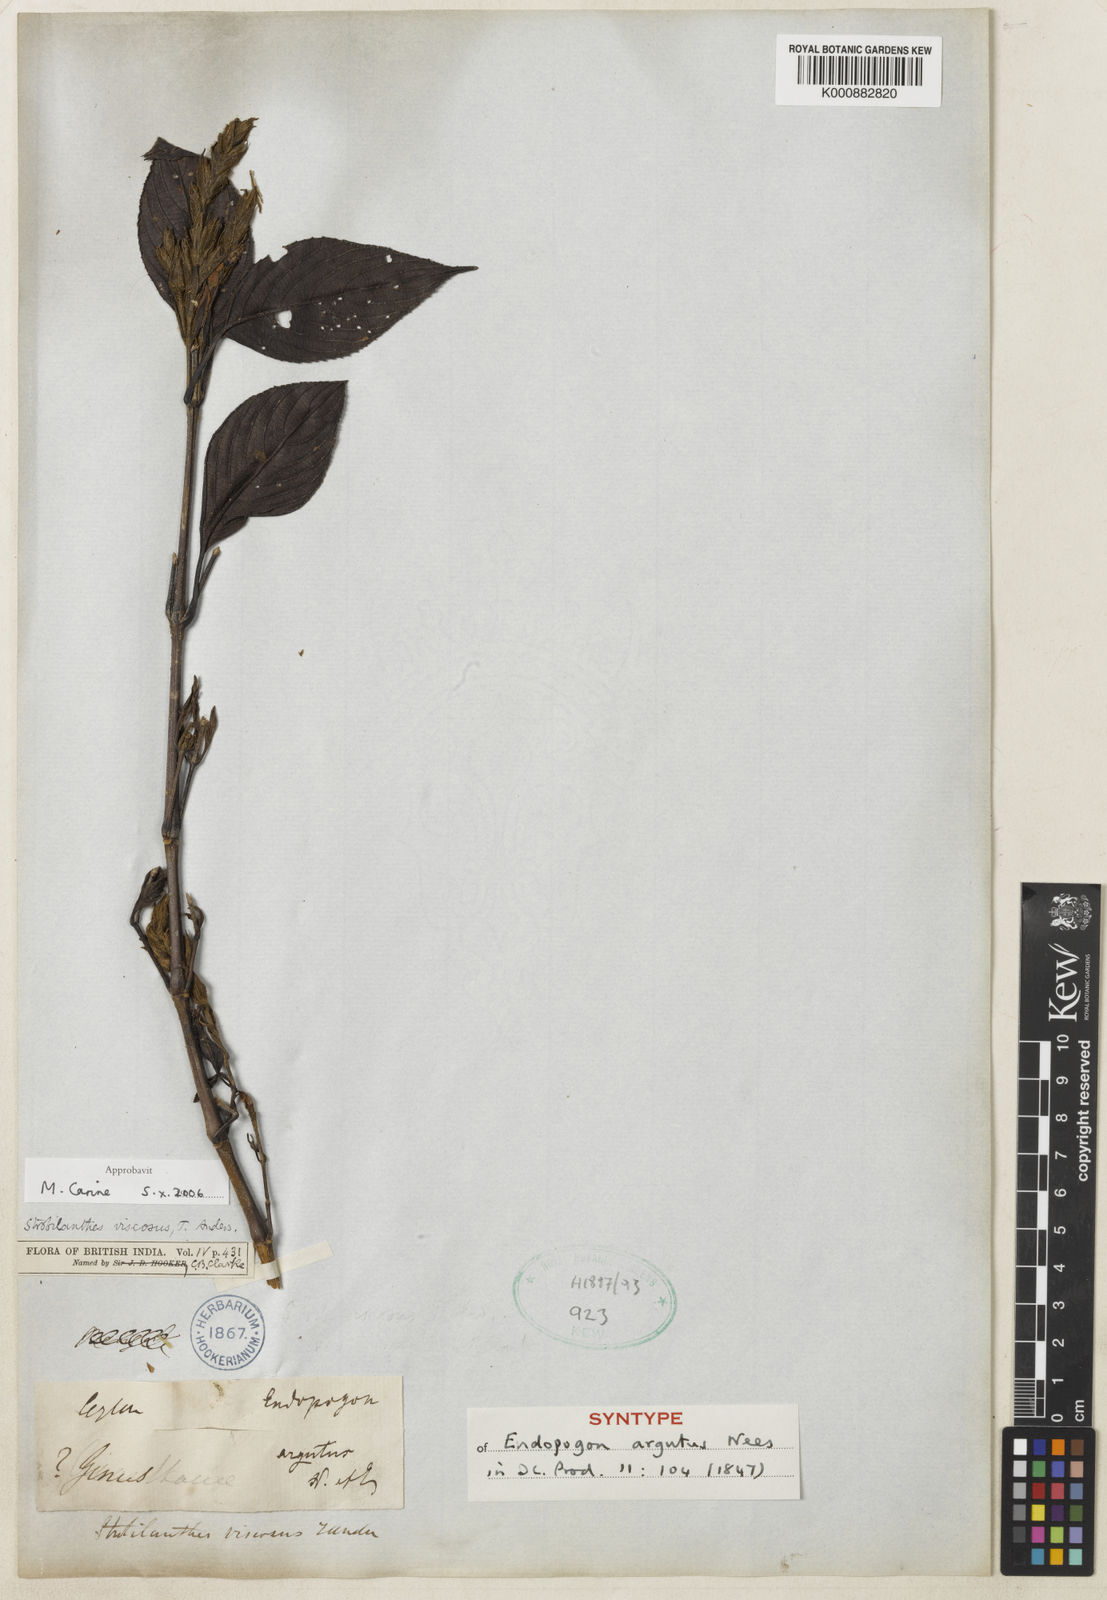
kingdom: Plantae
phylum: Tracheophyta
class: Magnoliopsida
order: Lamiales
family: Acanthaceae
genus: Strobilanthes
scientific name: Strobilanthes viscosa
